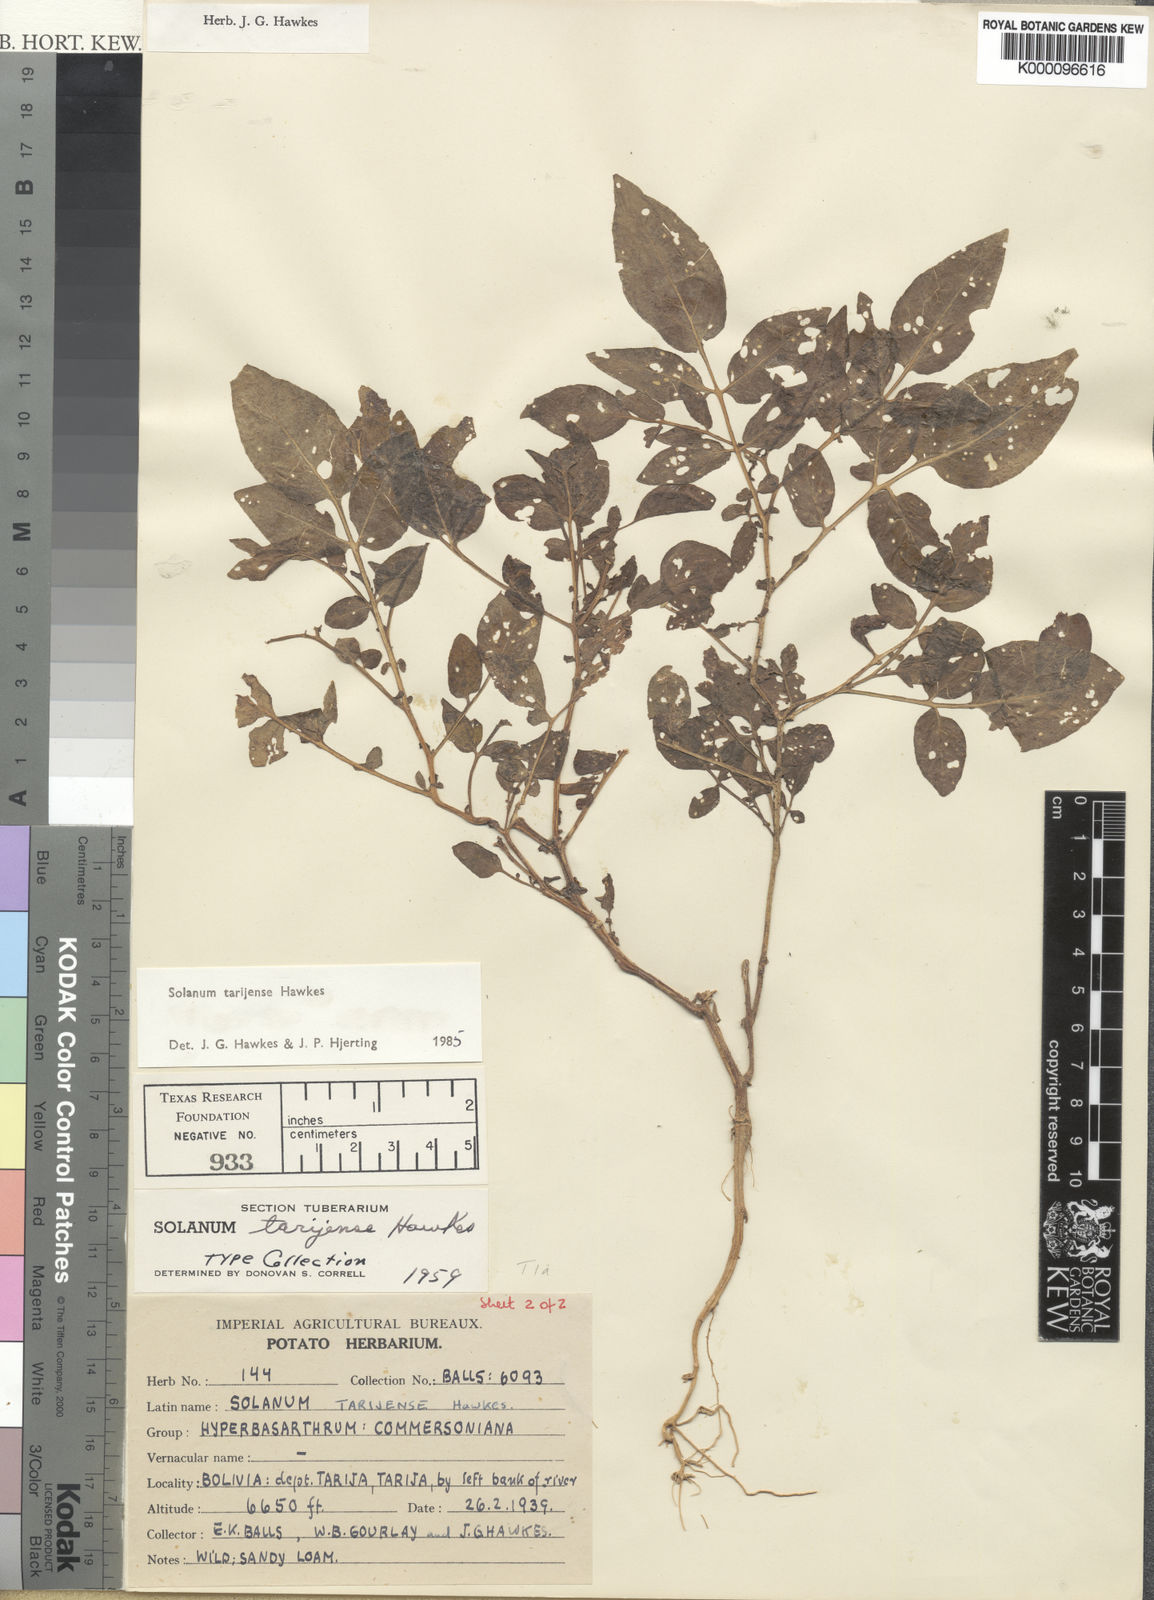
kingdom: Plantae
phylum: Tracheophyta
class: Magnoliopsida
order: Solanales
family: Solanaceae
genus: Solanum
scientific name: Solanum tarijense
